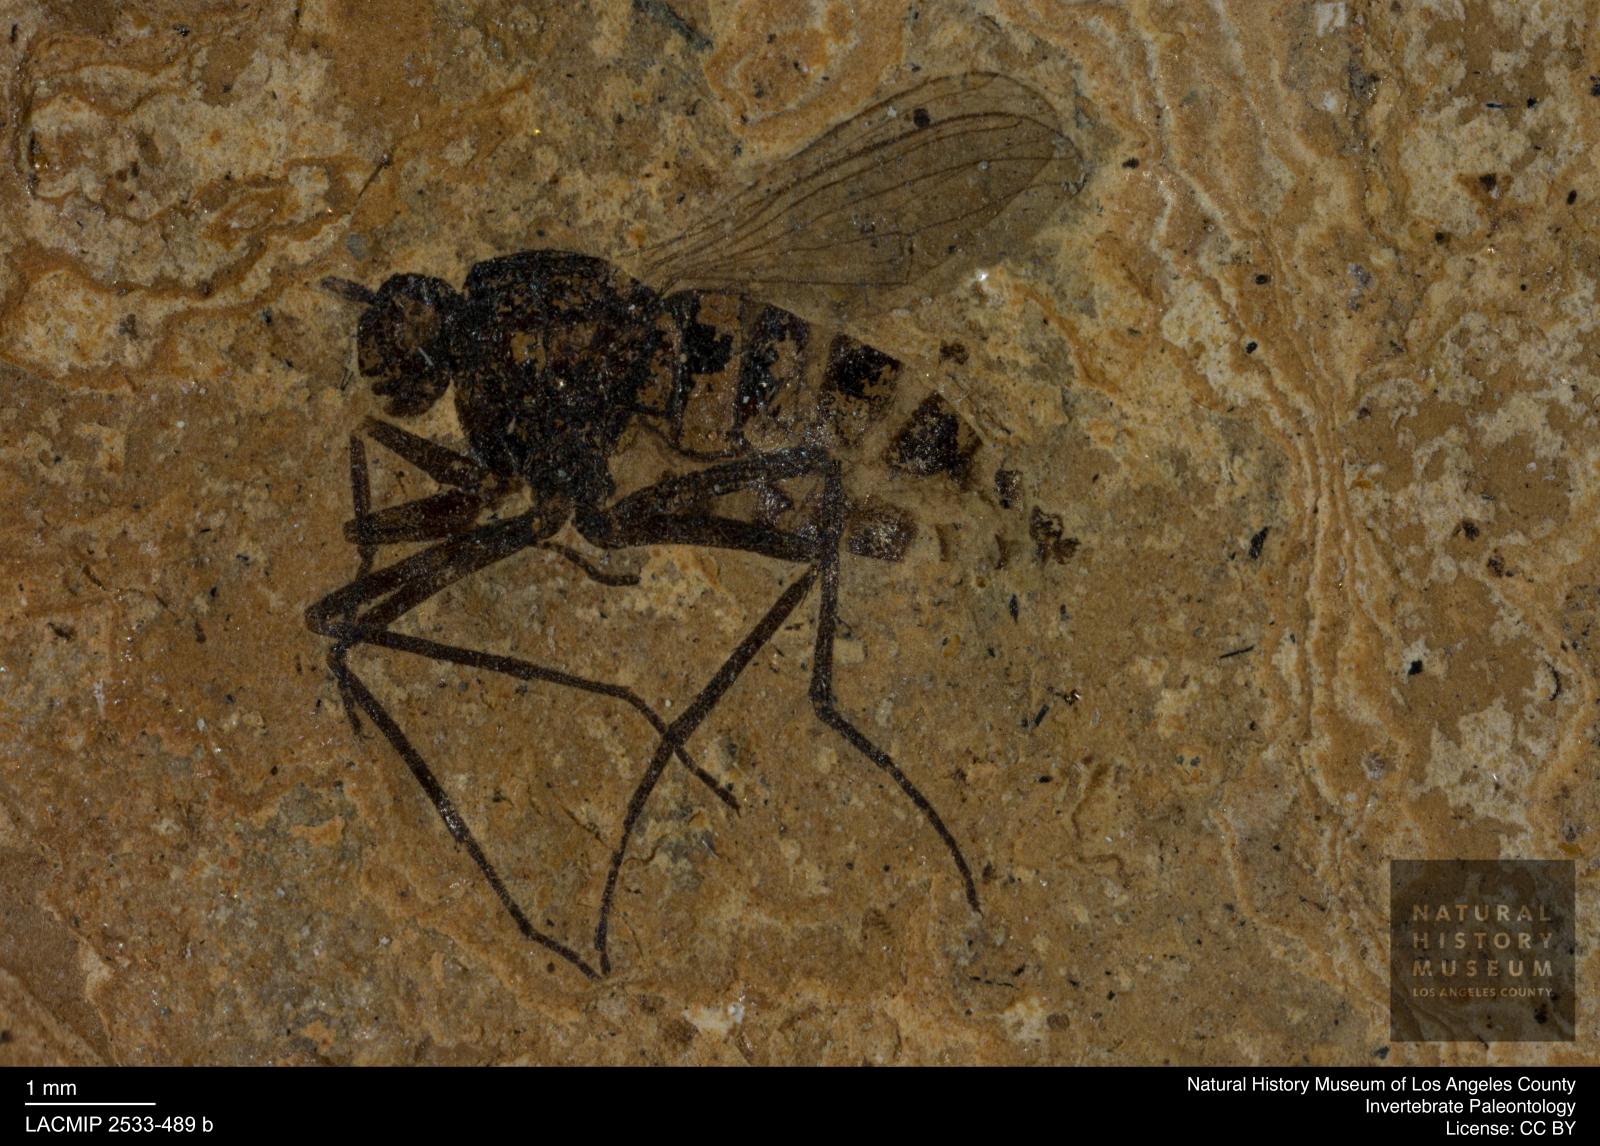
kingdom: Animalia
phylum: Arthropoda
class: Insecta
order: Diptera
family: Dolichopodidae
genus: Oncopygius
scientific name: Oncopygius venustus
